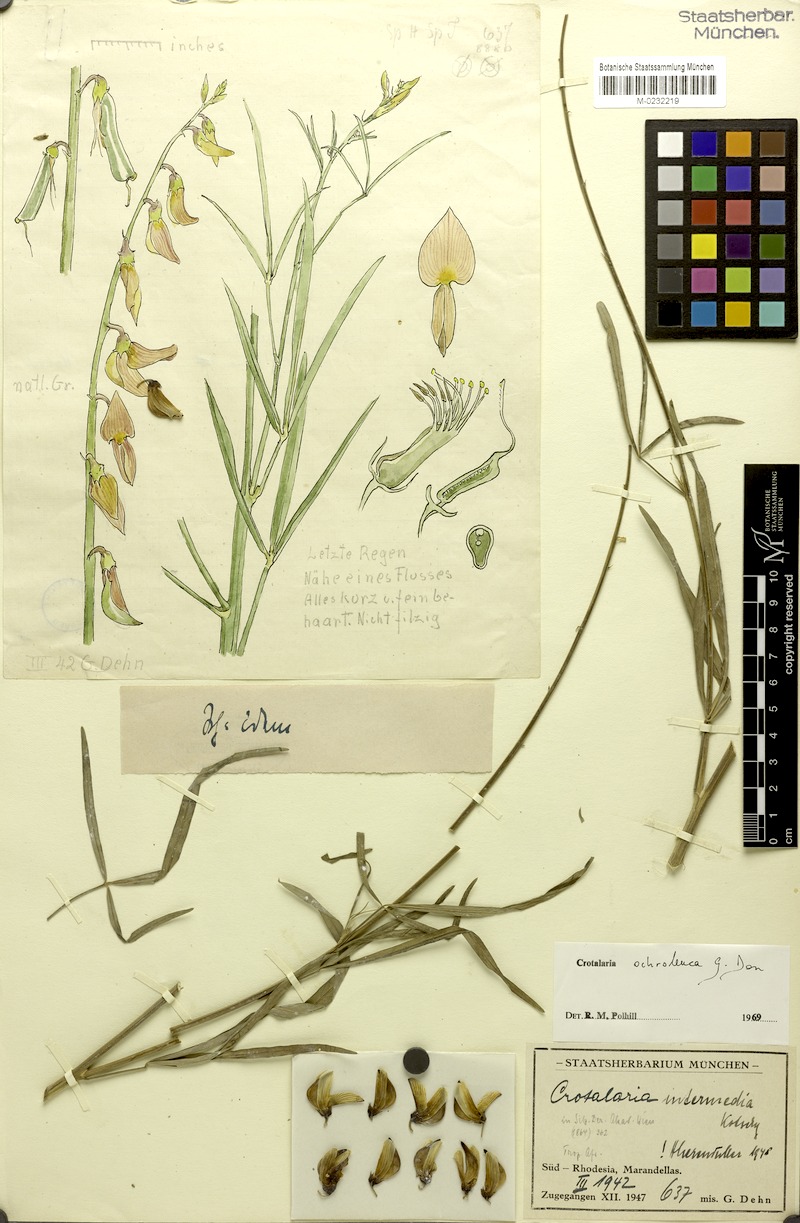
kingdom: Plantae
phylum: Tracheophyta
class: Magnoliopsida
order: Fabales
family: Fabaceae
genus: Crotalaria
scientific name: Crotalaria ochroleuca
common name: Slender leaf rattlebox
